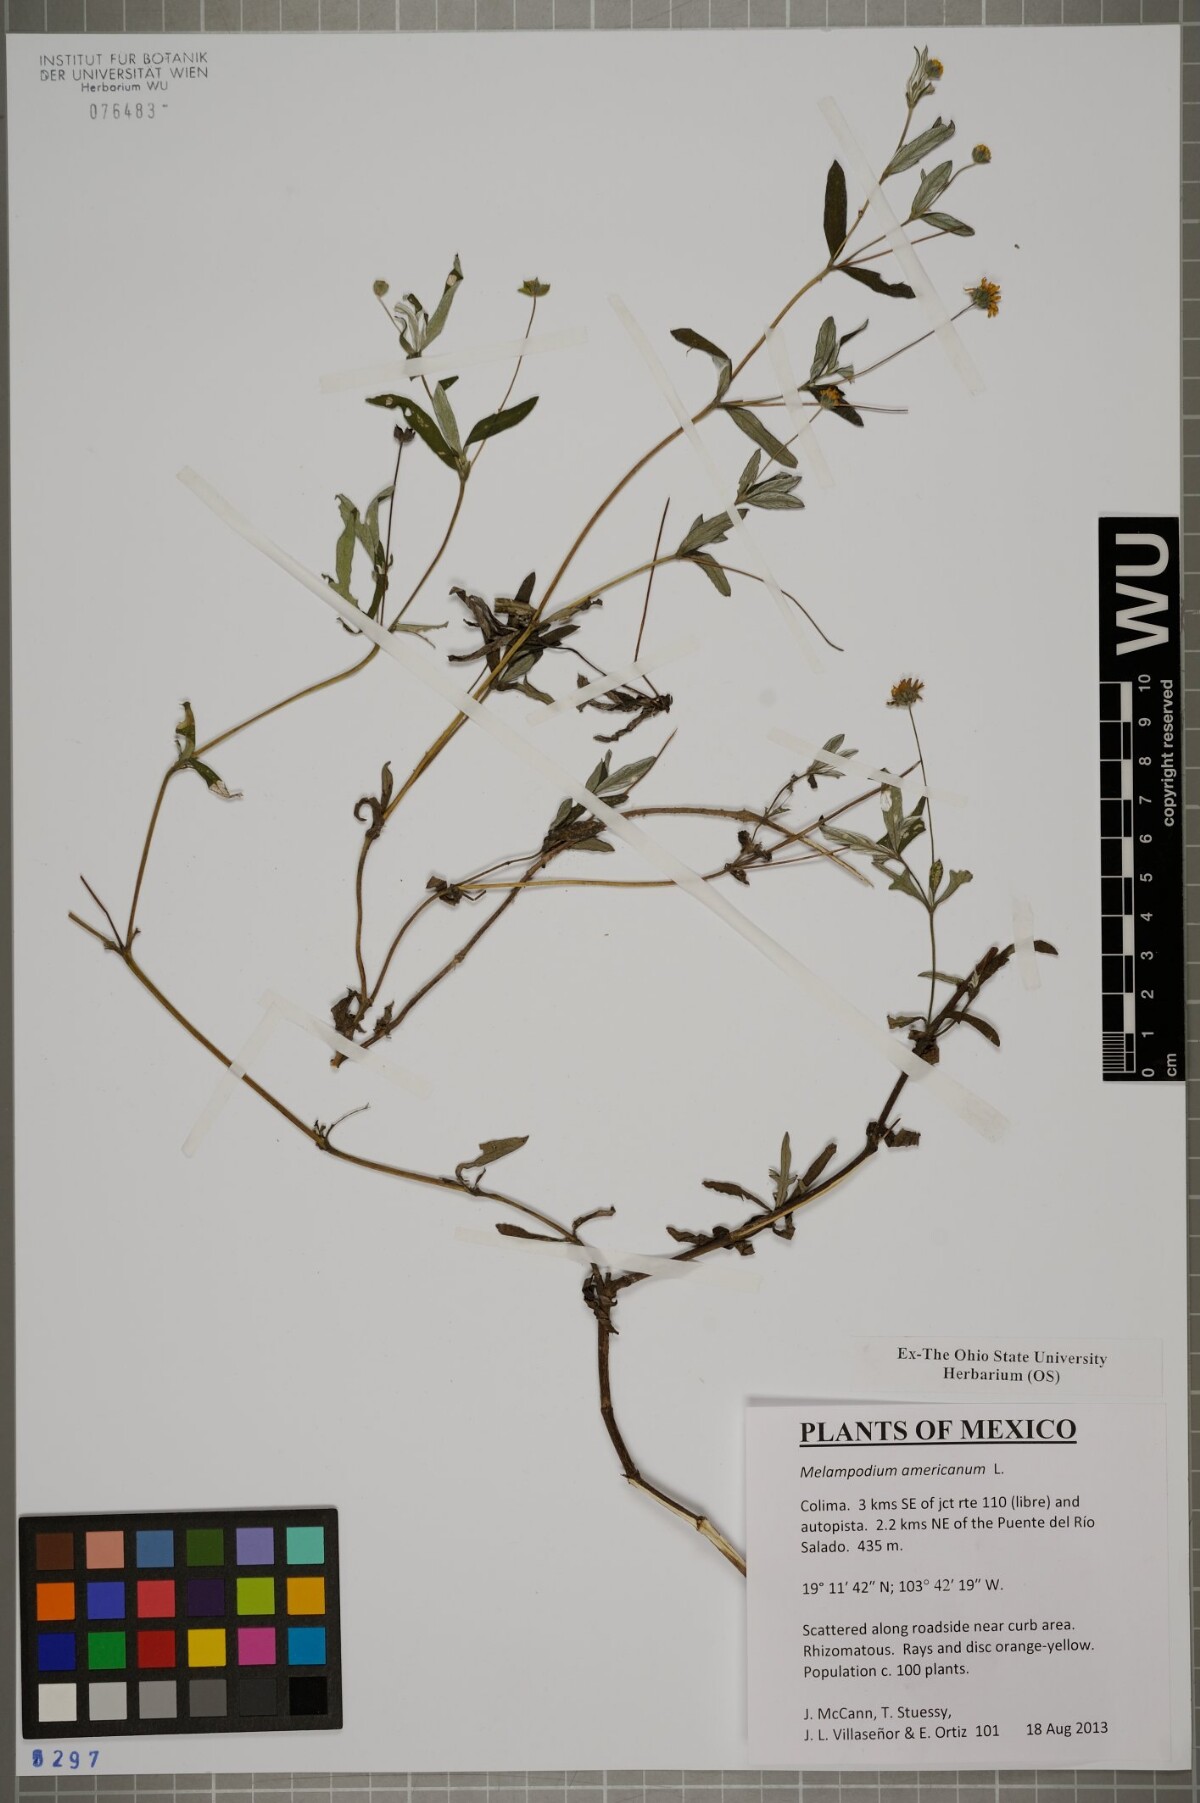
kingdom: Plantae
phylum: Tracheophyta
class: Magnoliopsida
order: Asterales
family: Asteraceae
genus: Melampodium
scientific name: Melampodium americanum
